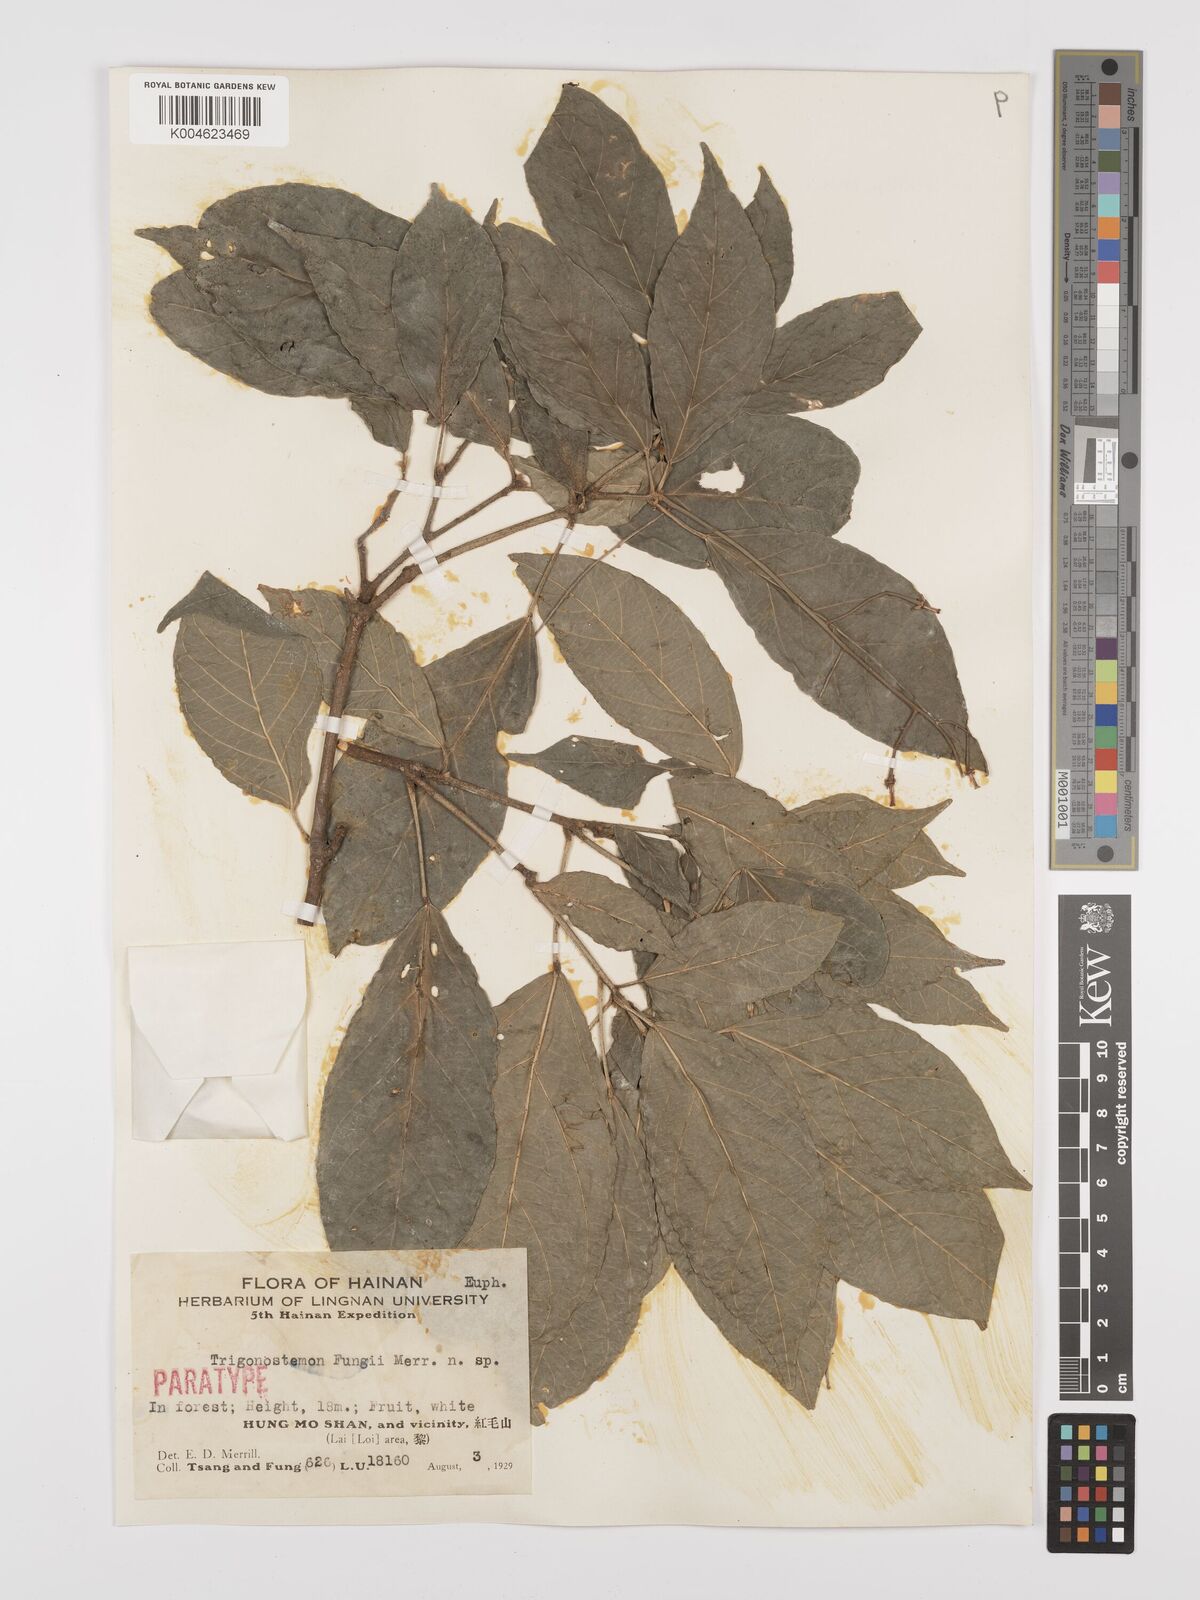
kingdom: Plantae
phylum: Tracheophyta
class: Magnoliopsida
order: Malpighiales
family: Euphorbiaceae
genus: Trigonostemon
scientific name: Trigonostemon viridissimus
